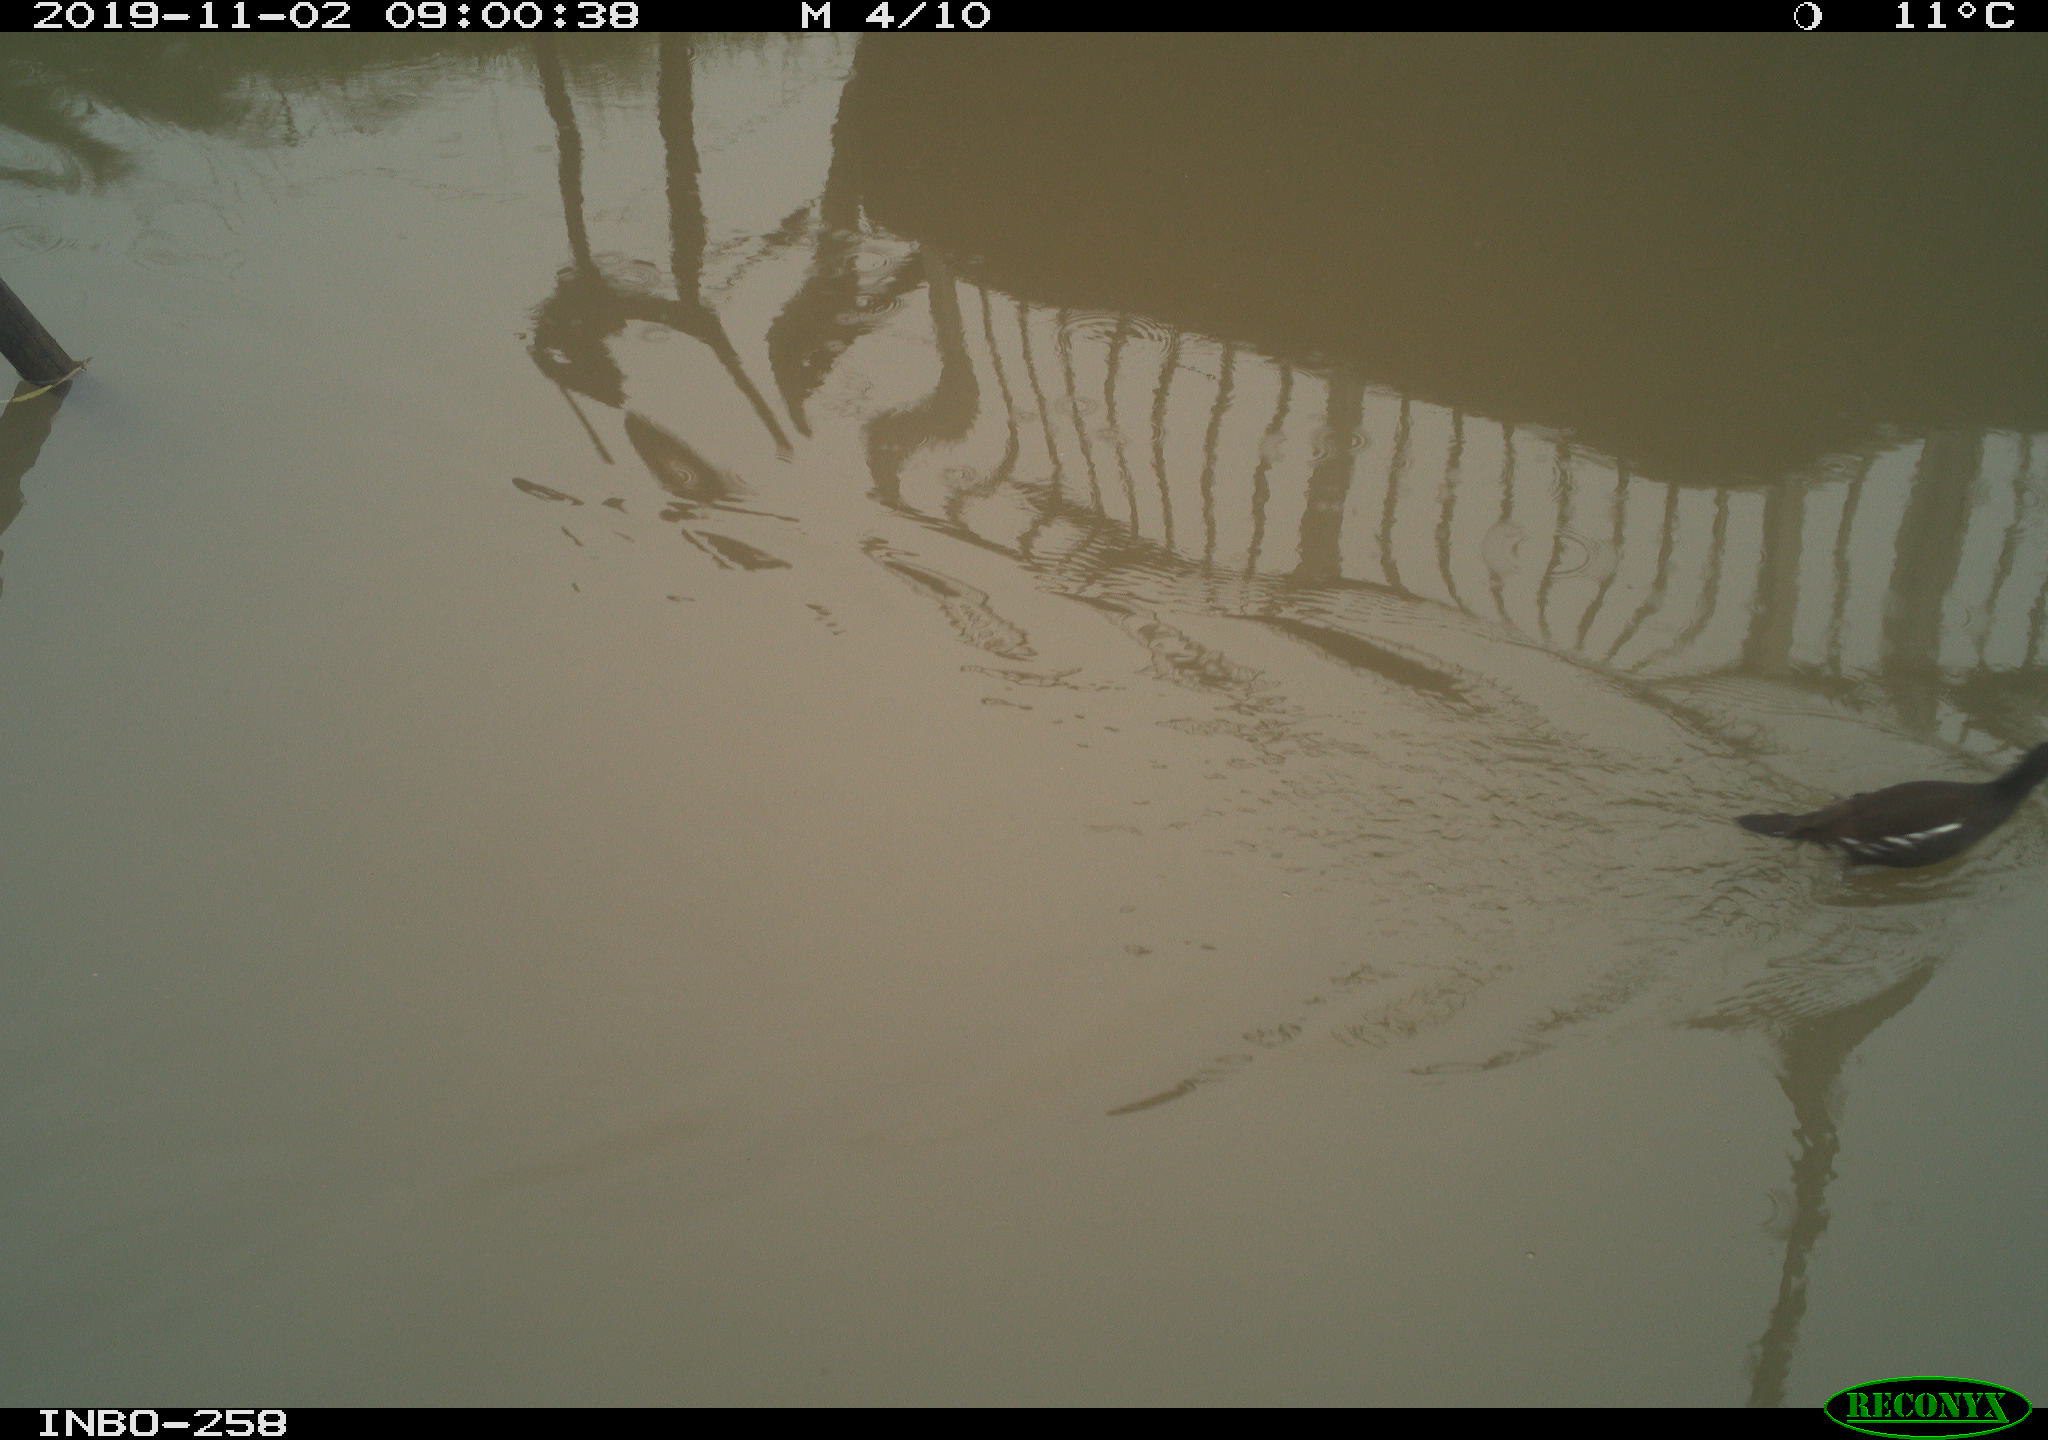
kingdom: Animalia
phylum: Chordata
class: Aves
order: Gruiformes
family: Rallidae
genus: Gallinula
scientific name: Gallinula chloropus
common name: Common moorhen
